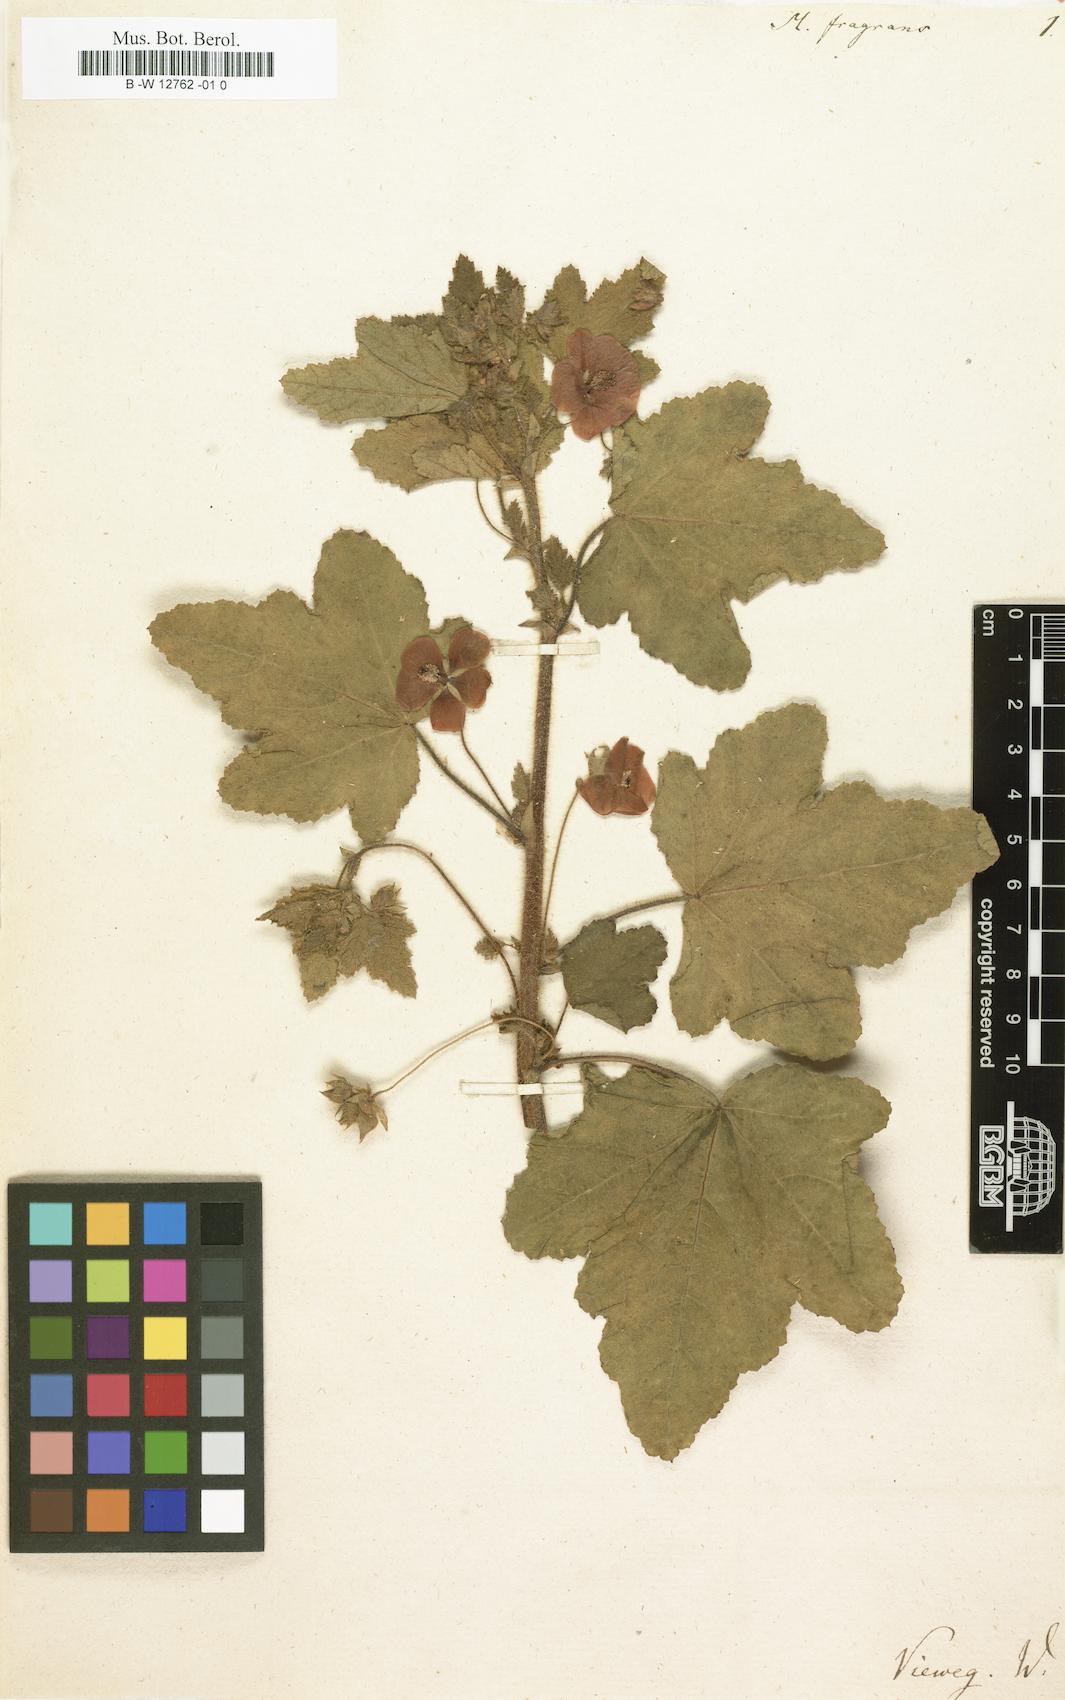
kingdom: Plantae
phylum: Tracheophyta
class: Magnoliopsida
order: Malvales
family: Malvaceae
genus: Anisodontea
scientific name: Anisodontea scabrosa
